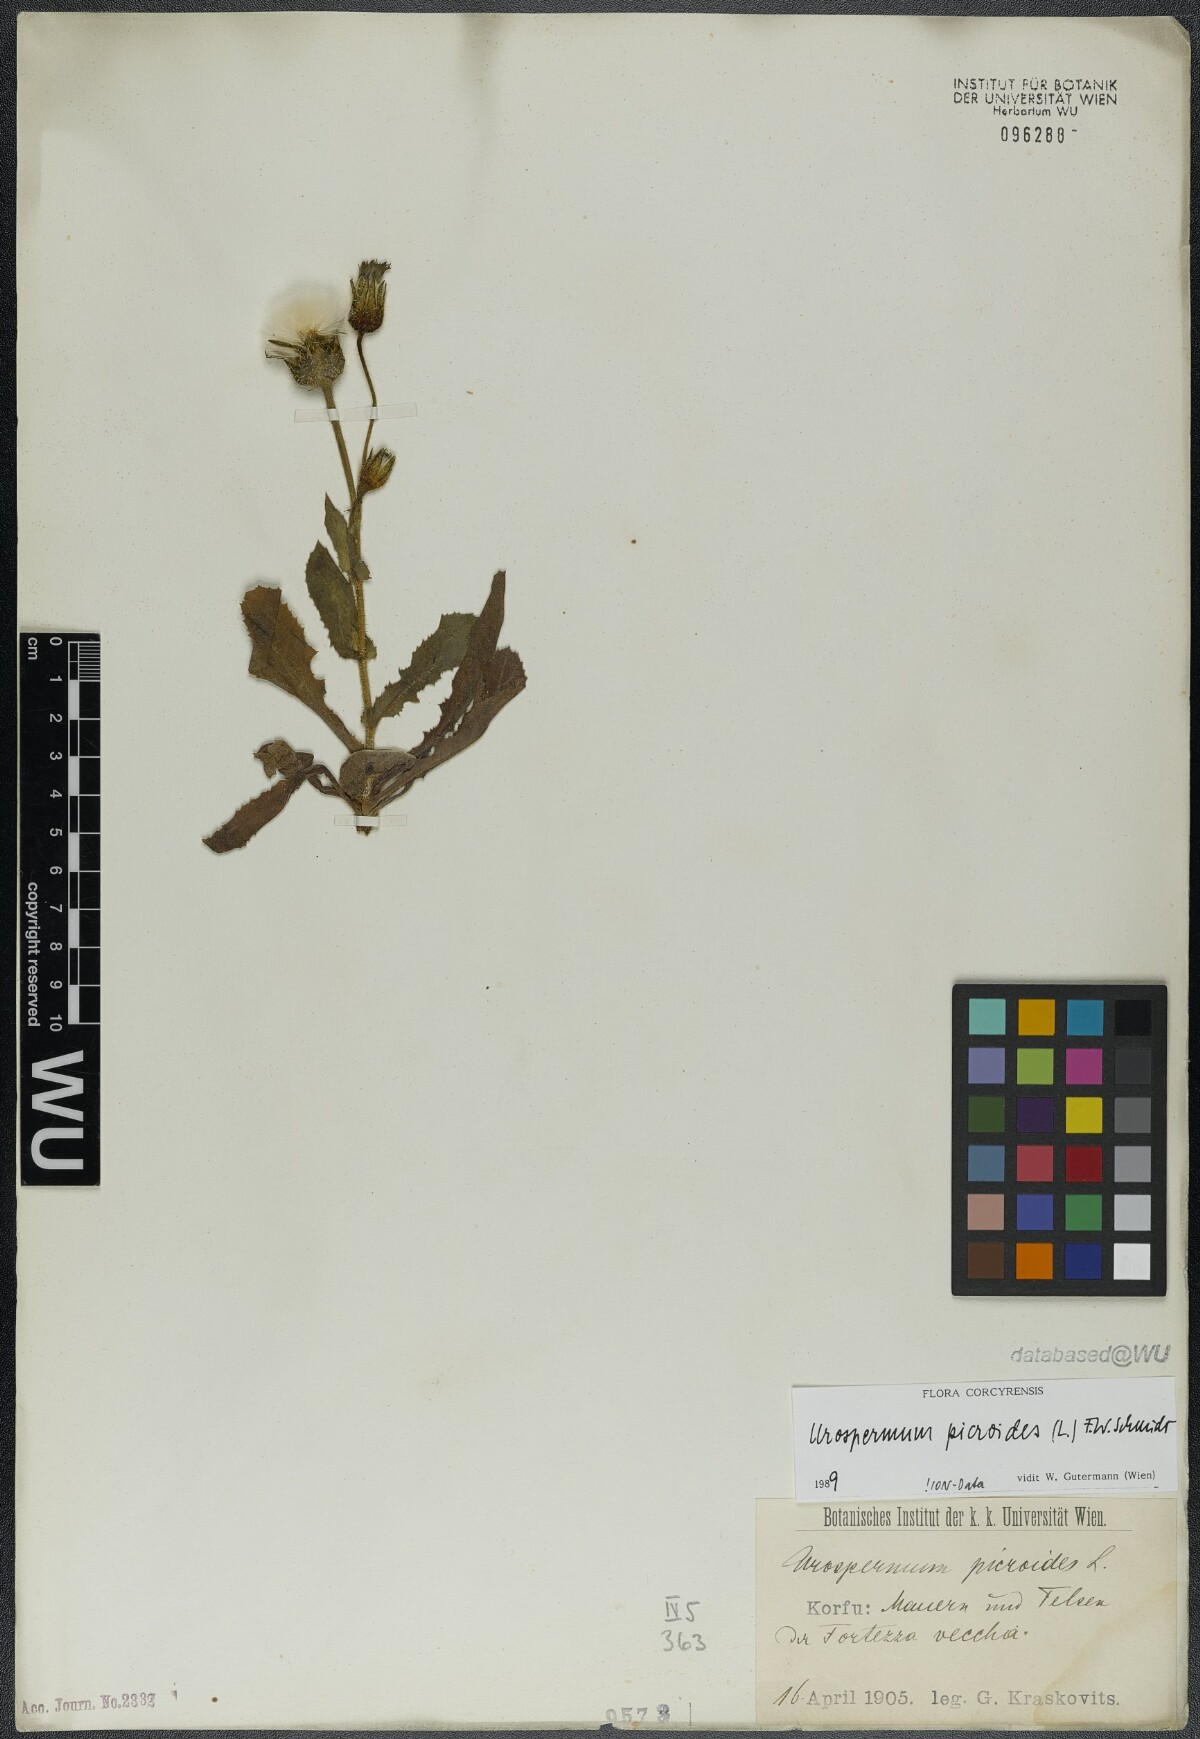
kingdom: Plantae
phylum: Tracheophyta
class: Magnoliopsida
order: Asterales
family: Asteraceae
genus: Urospermum
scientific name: Urospermum picroides
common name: False hawkbit
